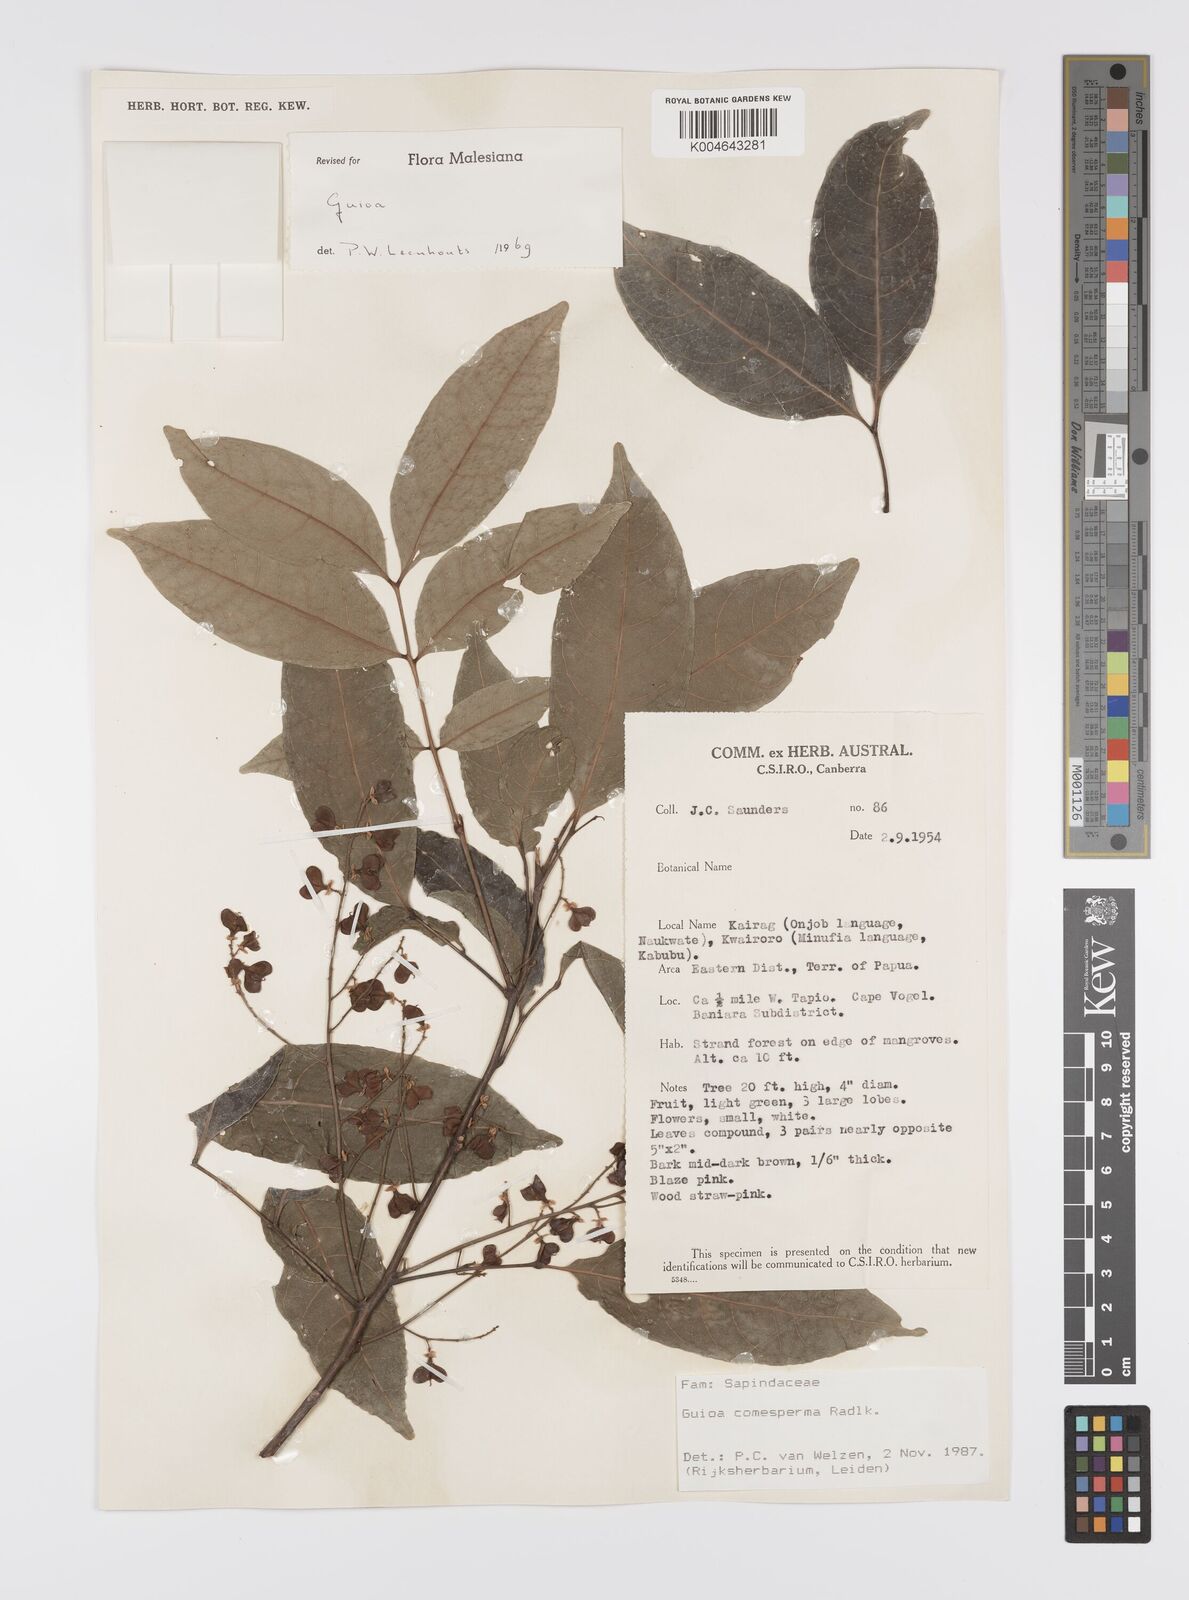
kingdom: Plantae
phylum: Tracheophyta
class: Magnoliopsida
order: Sapindales
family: Sapindaceae
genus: Guioa
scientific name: Guioa comesperma
